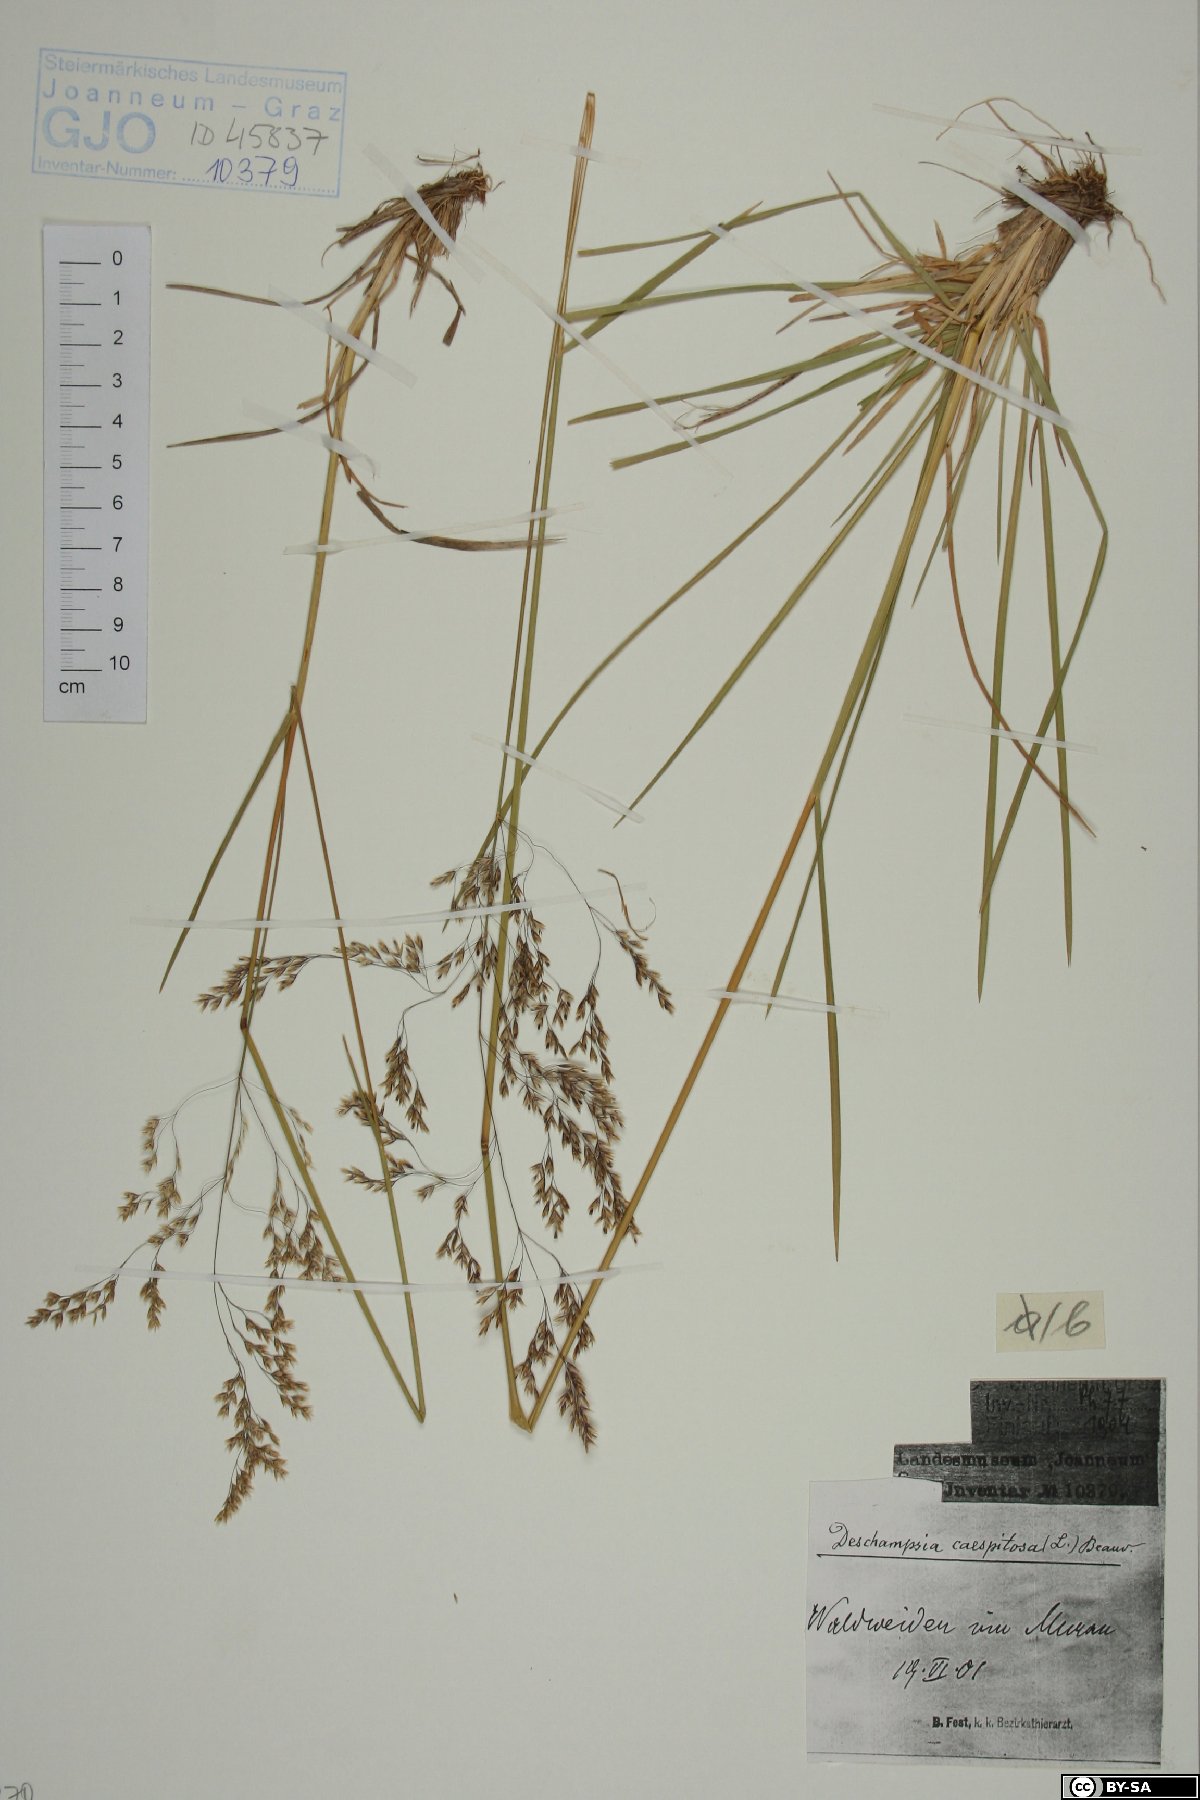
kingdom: Plantae
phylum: Tracheophyta
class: Liliopsida
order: Poales
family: Poaceae
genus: Deschampsia
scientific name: Deschampsia cespitosa
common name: Tufted hair-grass
